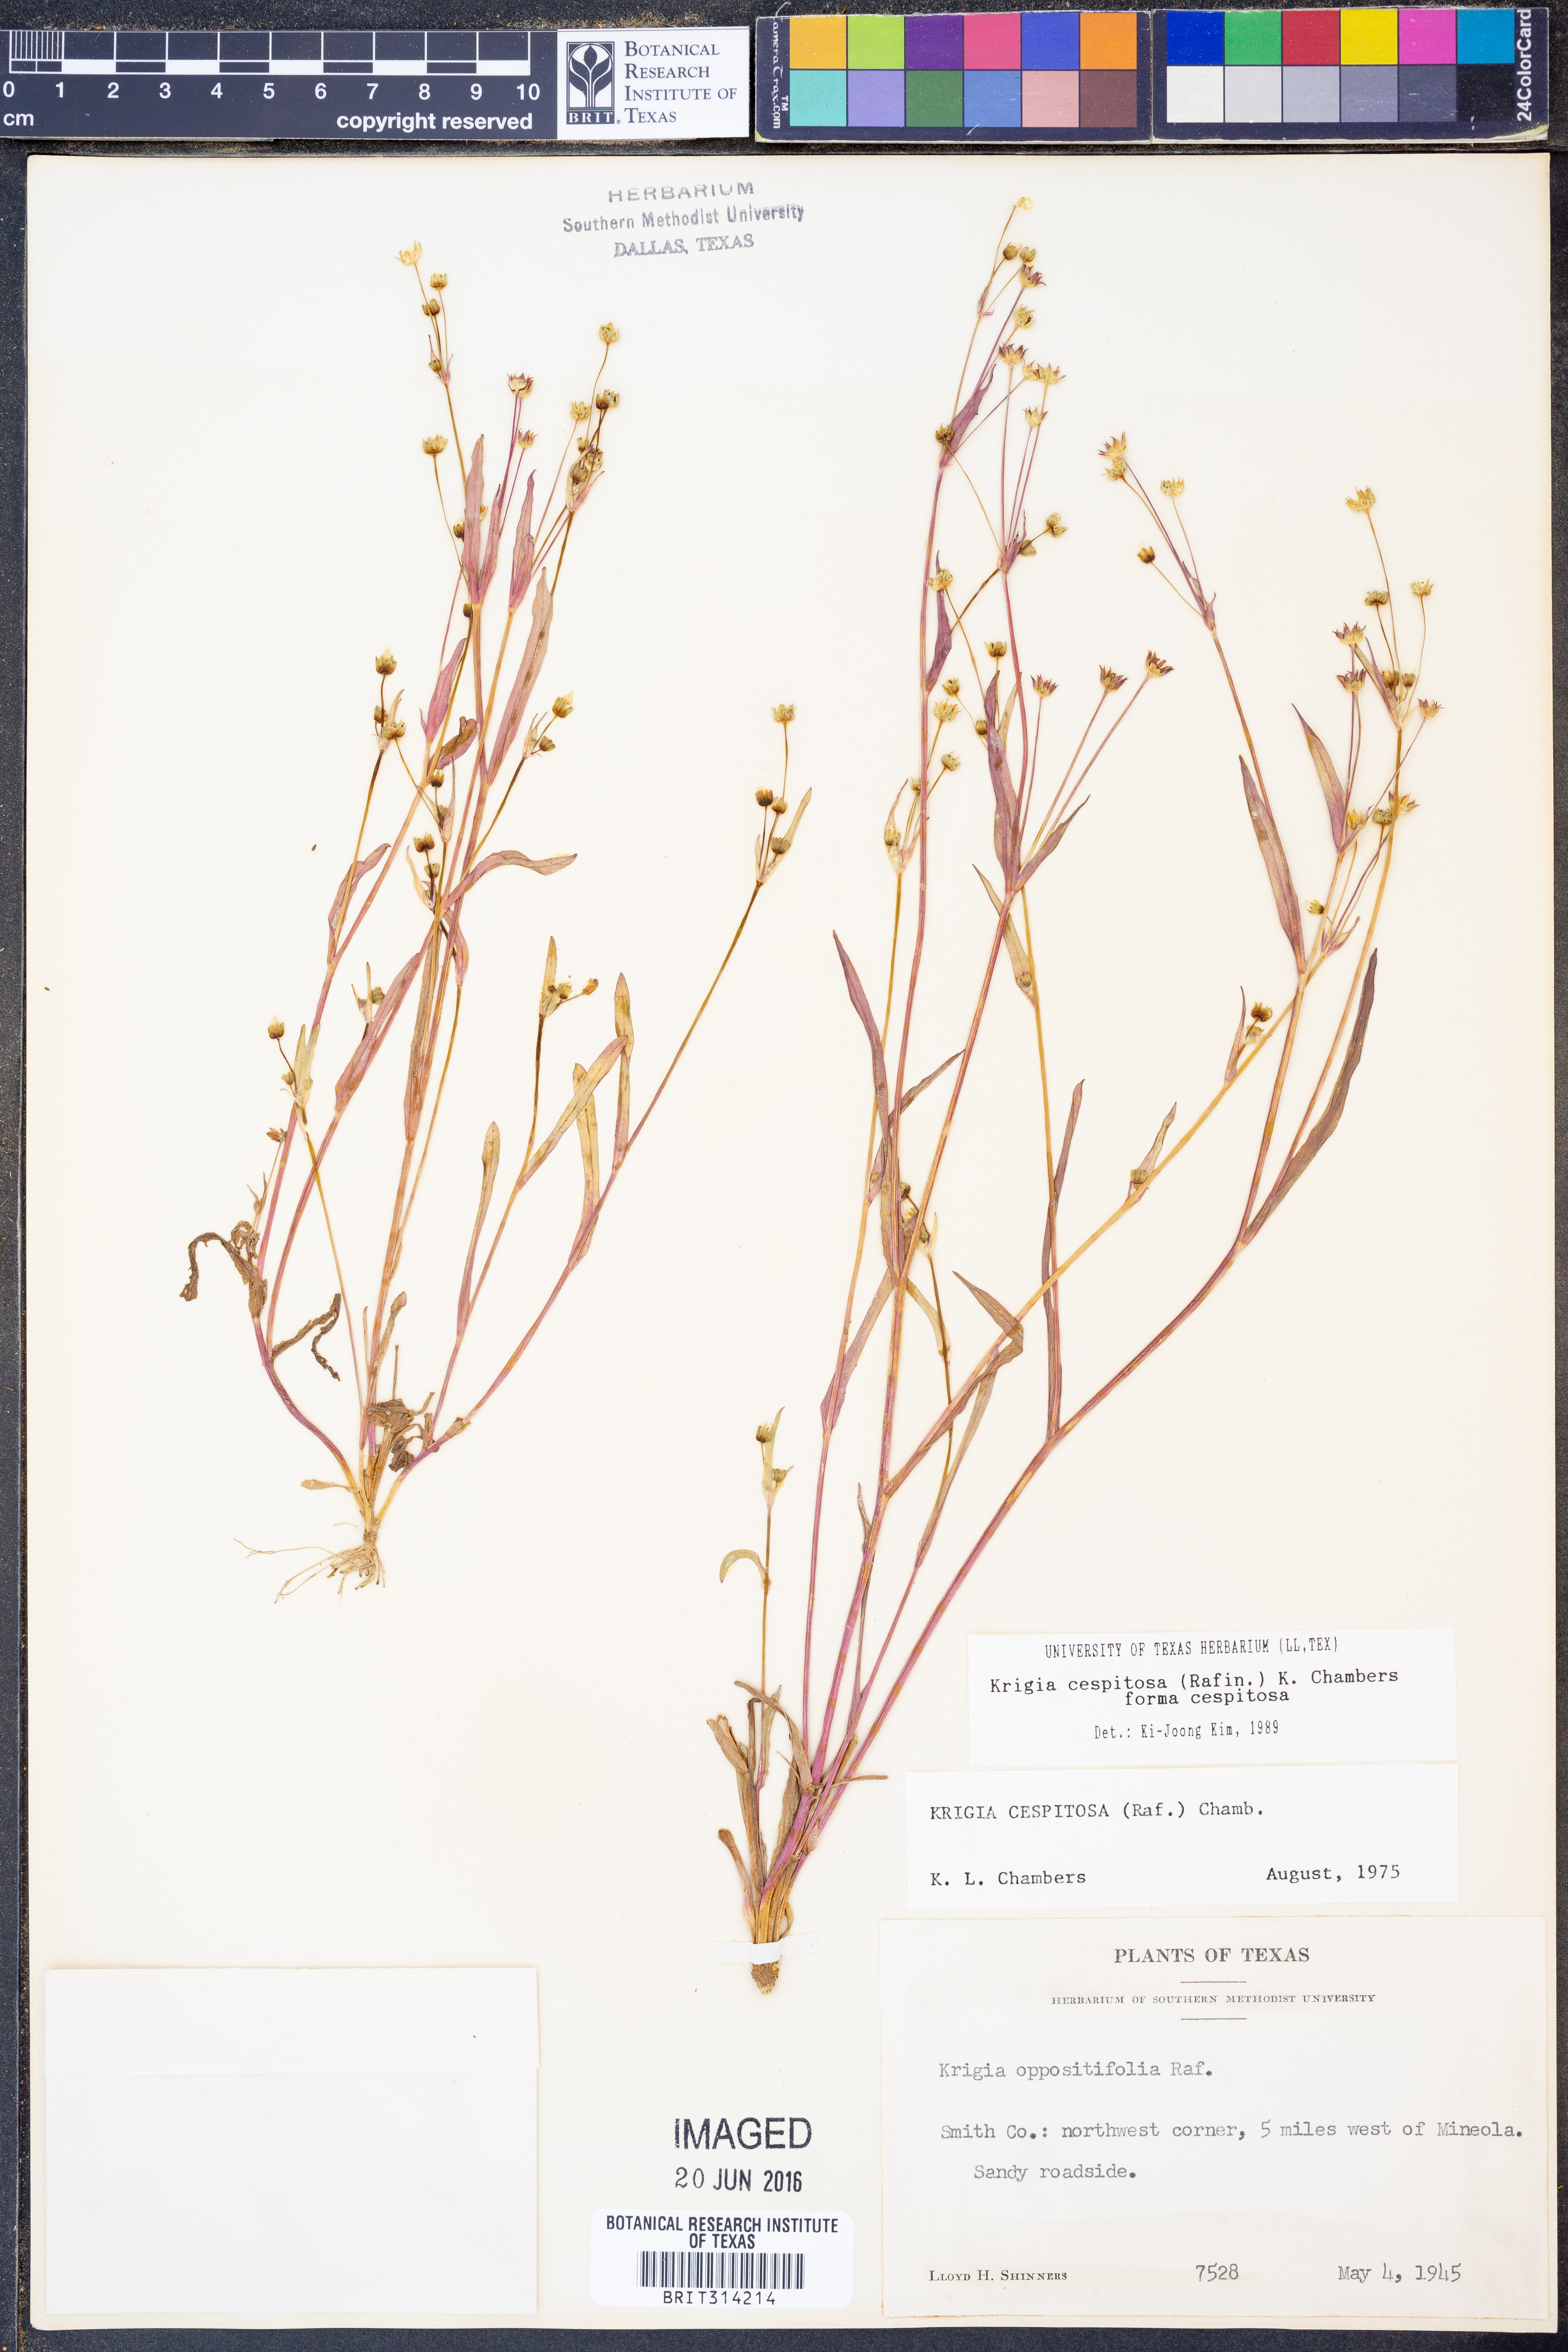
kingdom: Plantae
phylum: Tracheophyta
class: Magnoliopsida
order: Asterales
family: Asteraceae
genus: Krigia
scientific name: Krigia cespitosa
